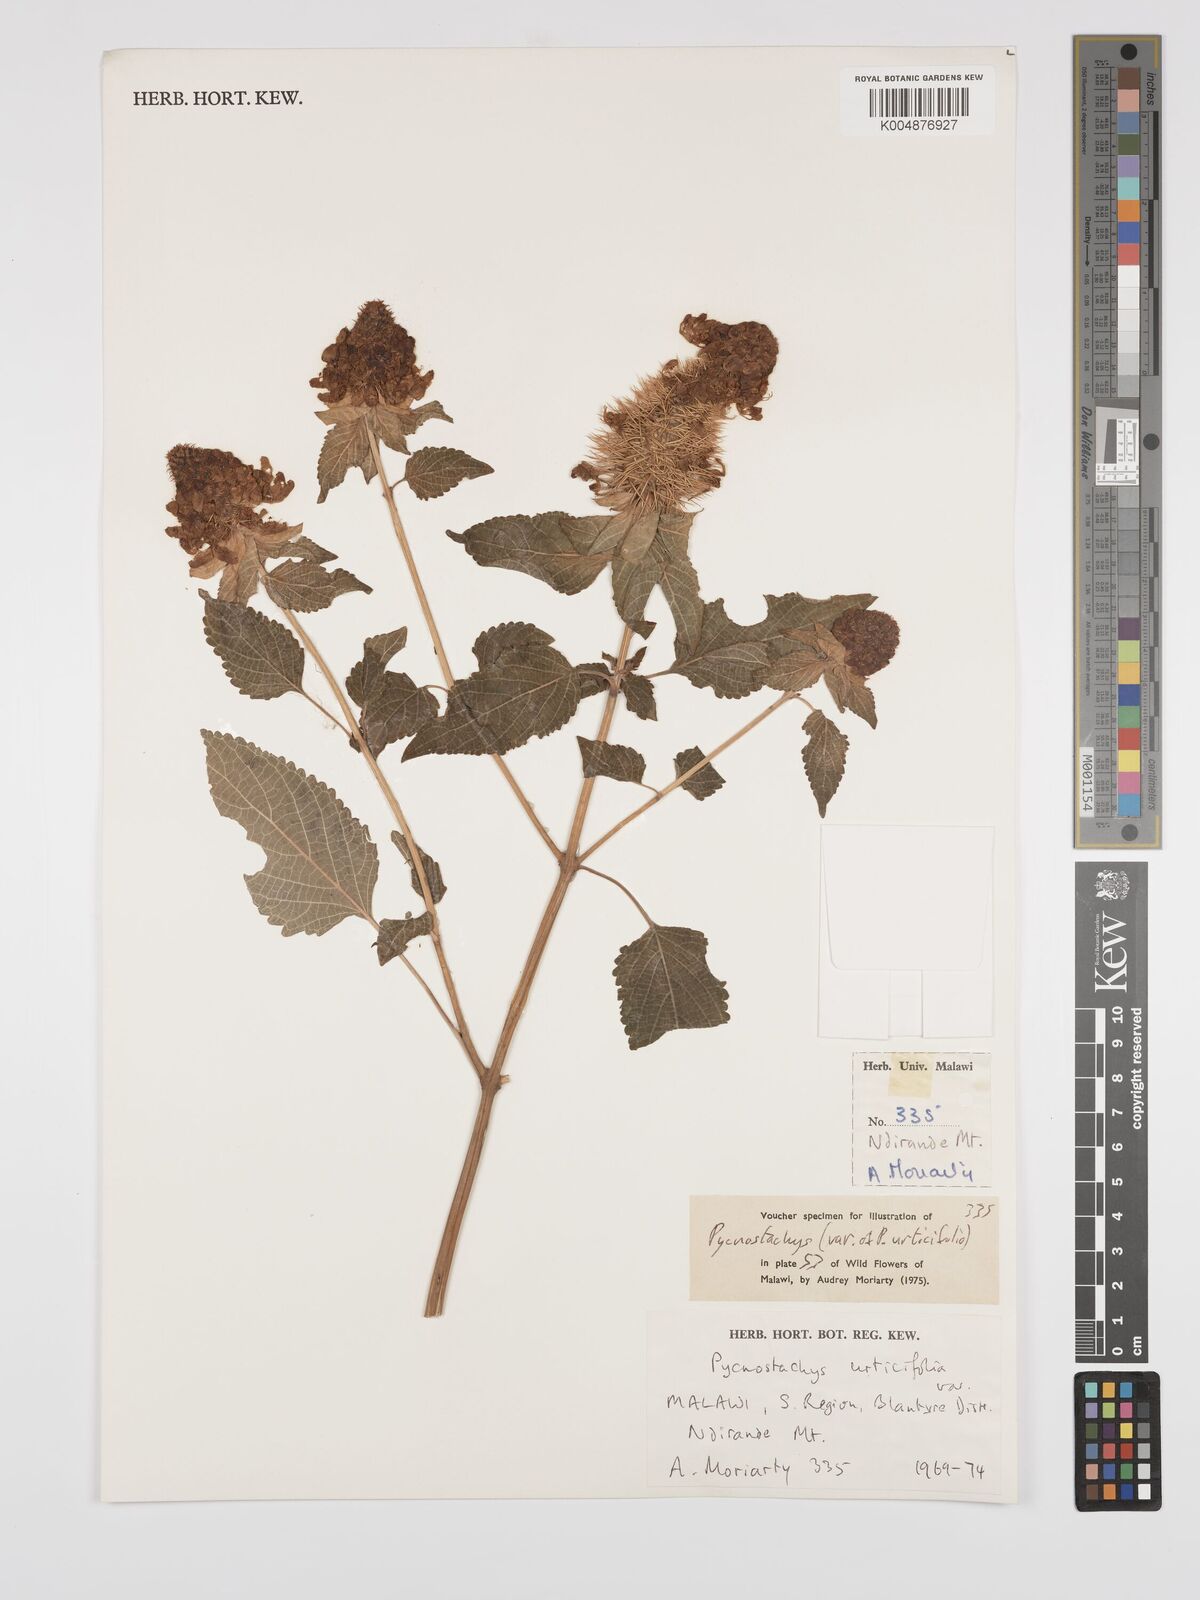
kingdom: Plantae
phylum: Tracheophyta
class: Magnoliopsida
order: Lamiales
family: Lamiaceae
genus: Coleus
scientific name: Coleus livingstonei
